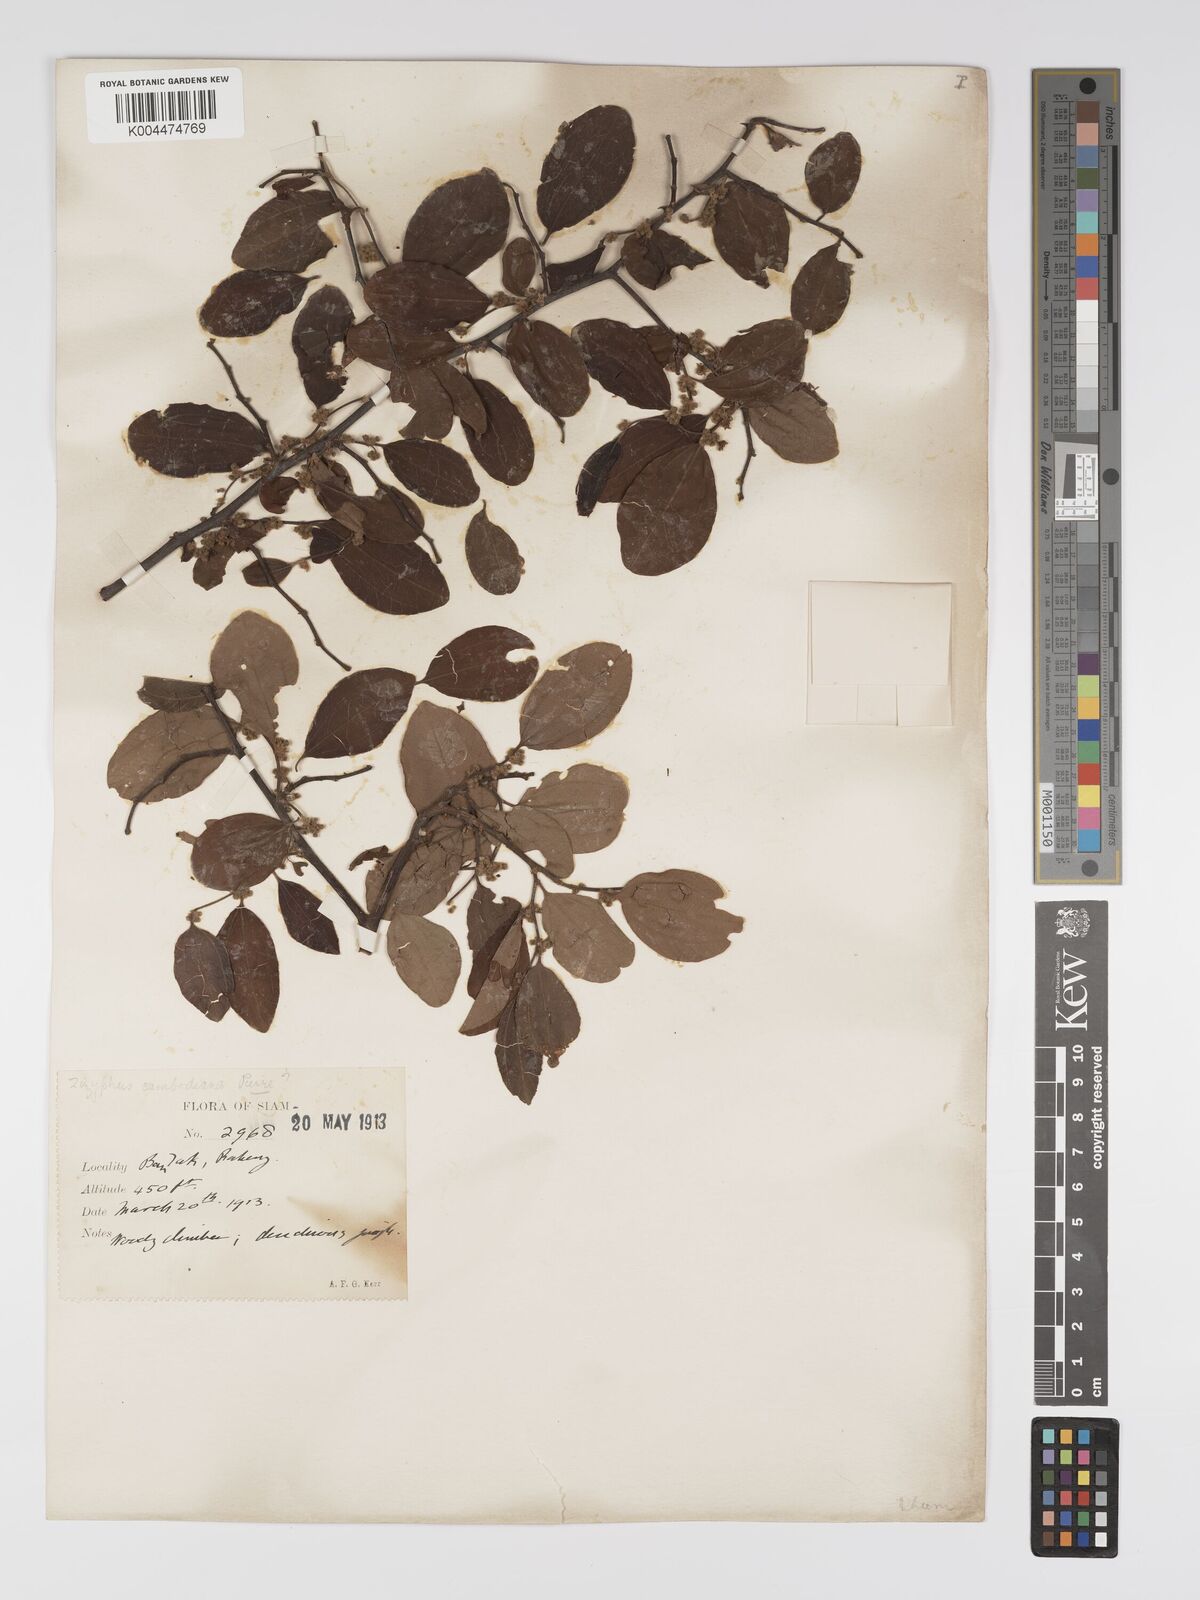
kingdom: Plantae
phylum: Tracheophyta
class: Magnoliopsida
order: Rosales
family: Rhamnaceae
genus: Ziziphus
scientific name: Ziziphus cambodiana
